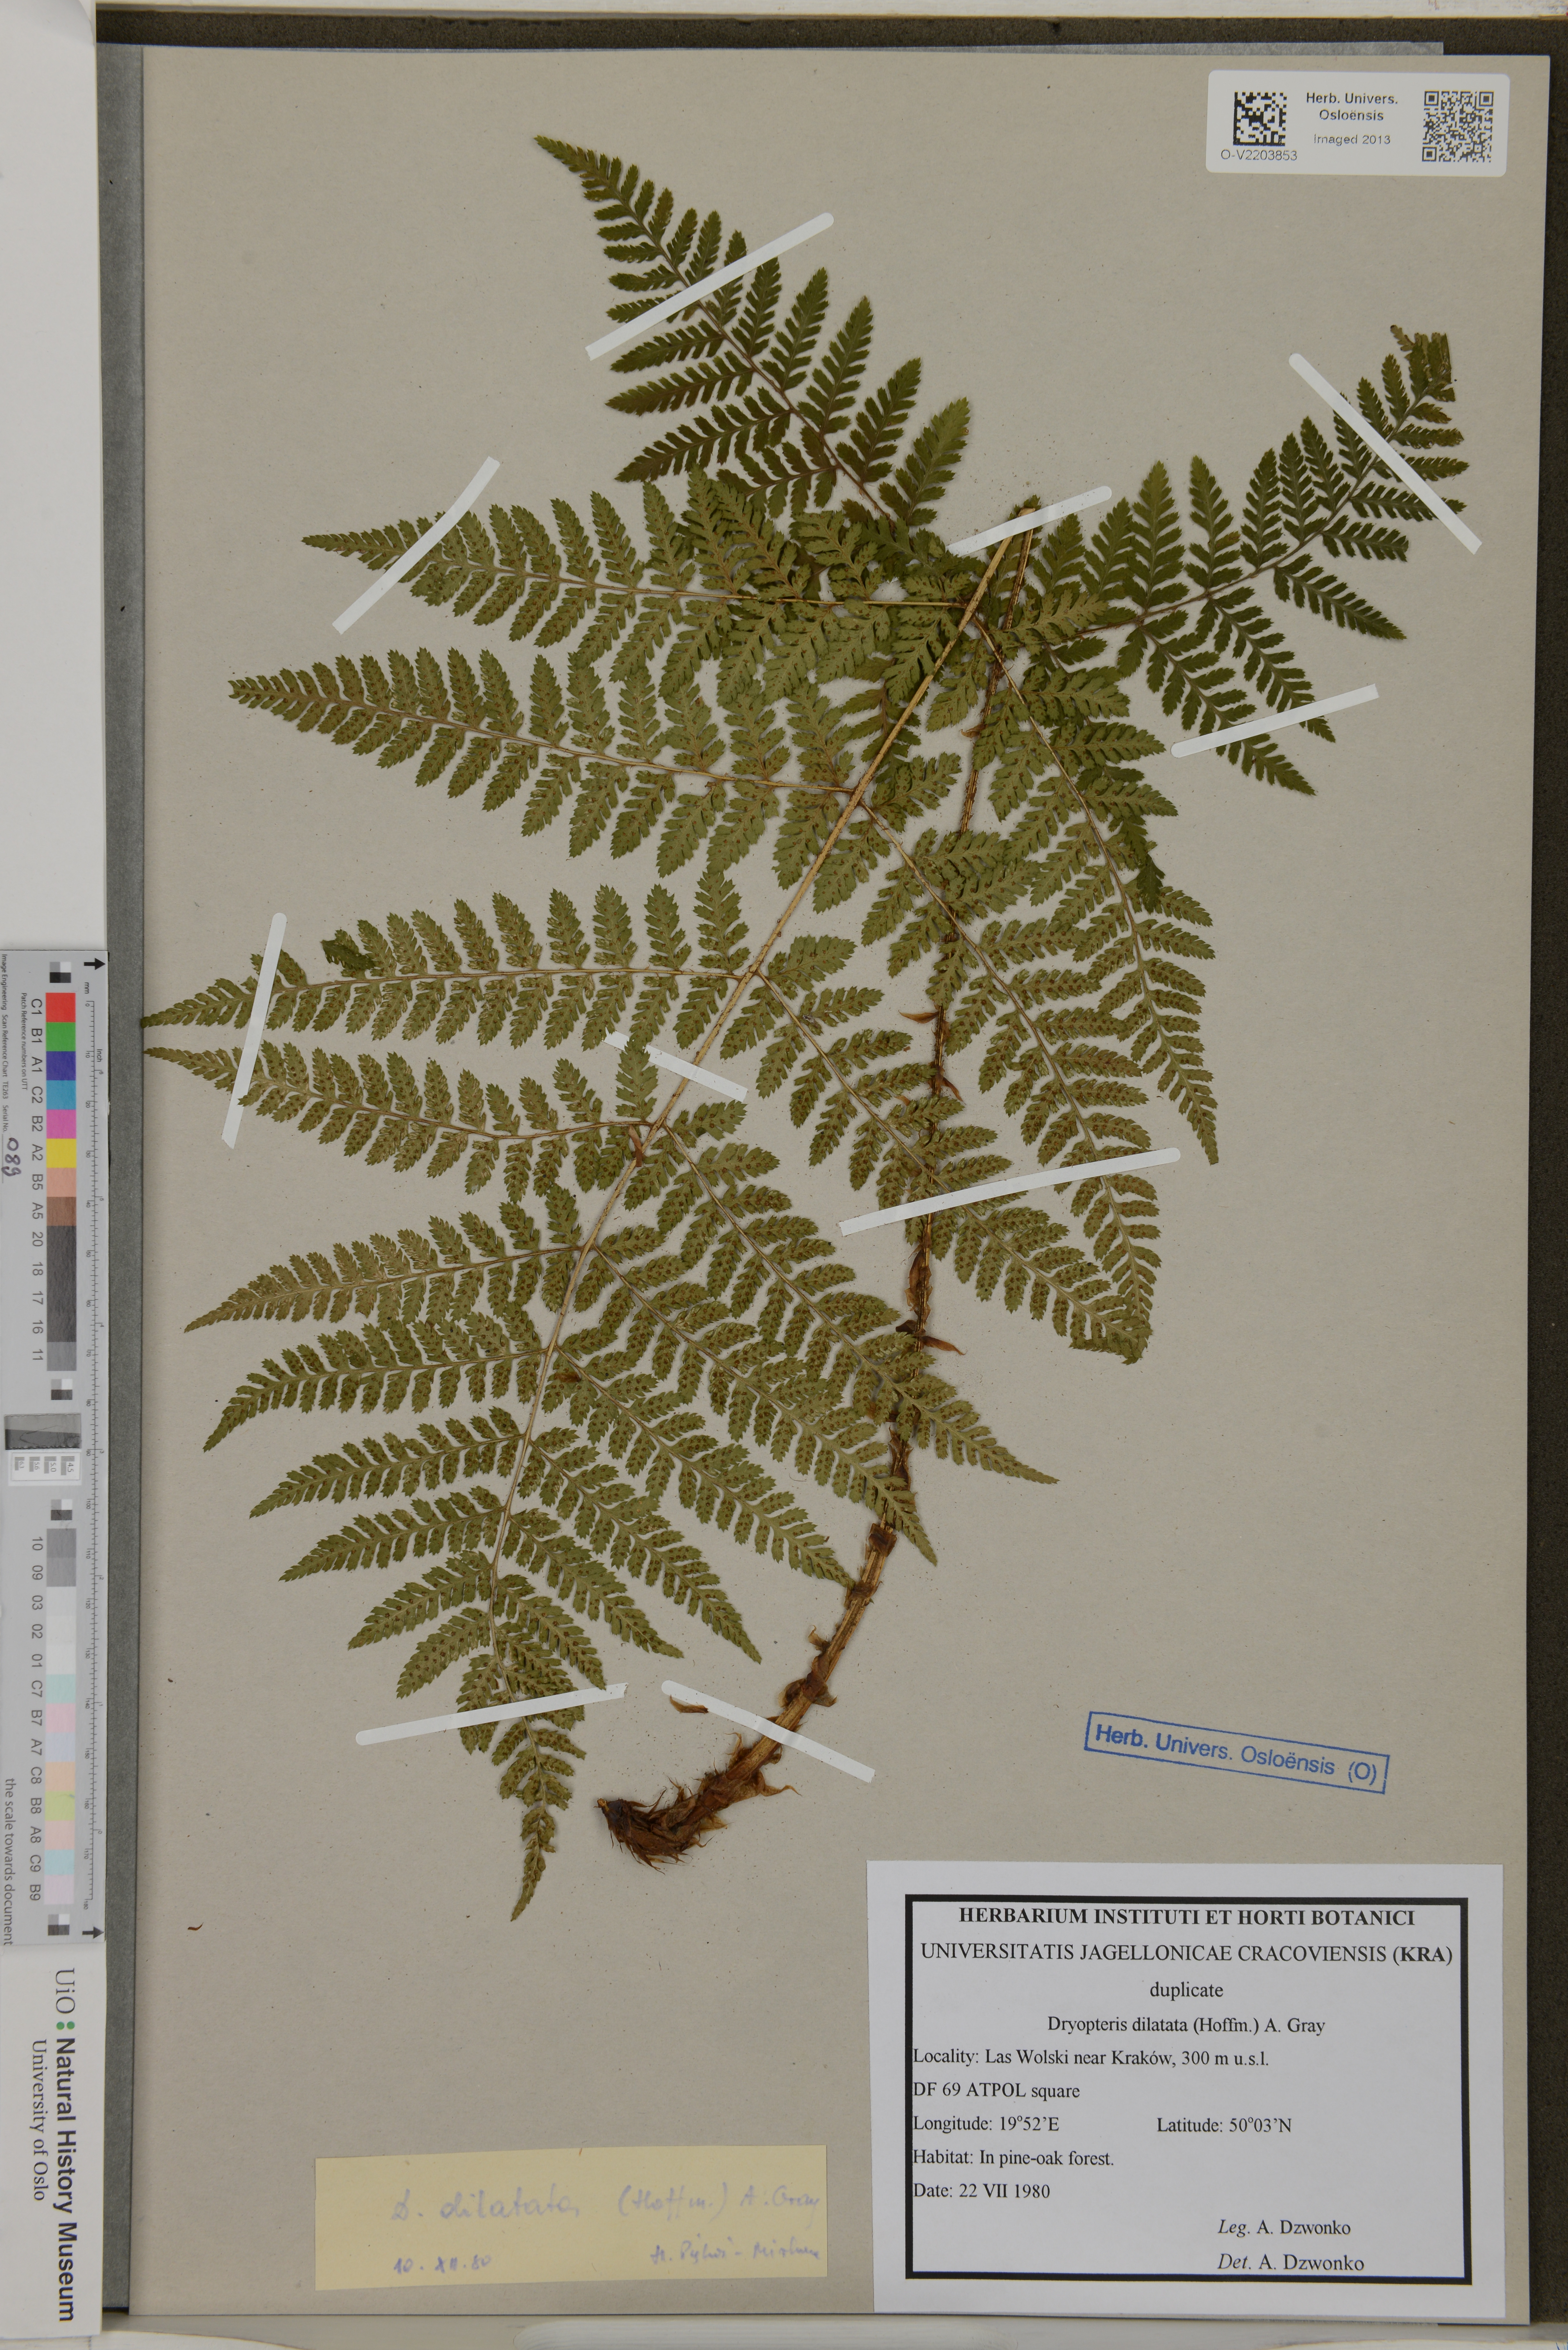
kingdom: Plantae
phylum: Tracheophyta
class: Polypodiopsida
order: Polypodiales
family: Dryopteridaceae
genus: Dryopteris
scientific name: Dryopteris dilatata
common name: Broad buckler-fern
